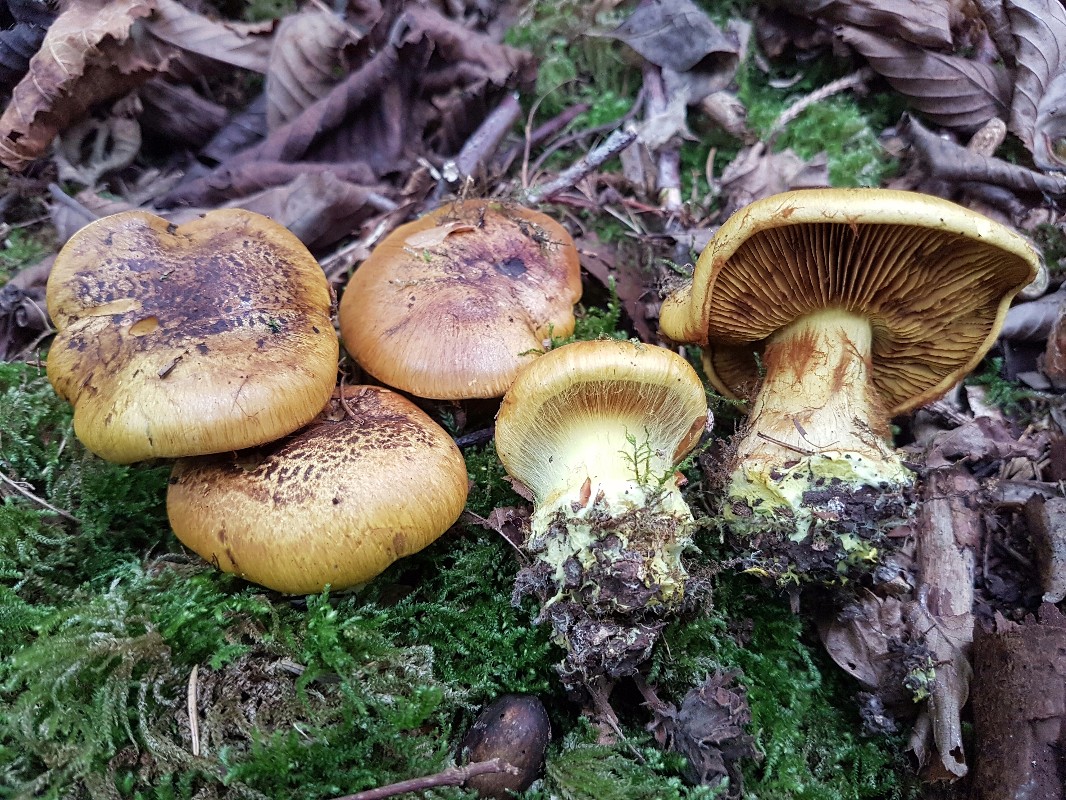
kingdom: Fungi
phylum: Basidiomycota
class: Agaricomycetes
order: Agaricales
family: Cortinariaceae
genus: Calonarius
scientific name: Calonarius meinhardii
